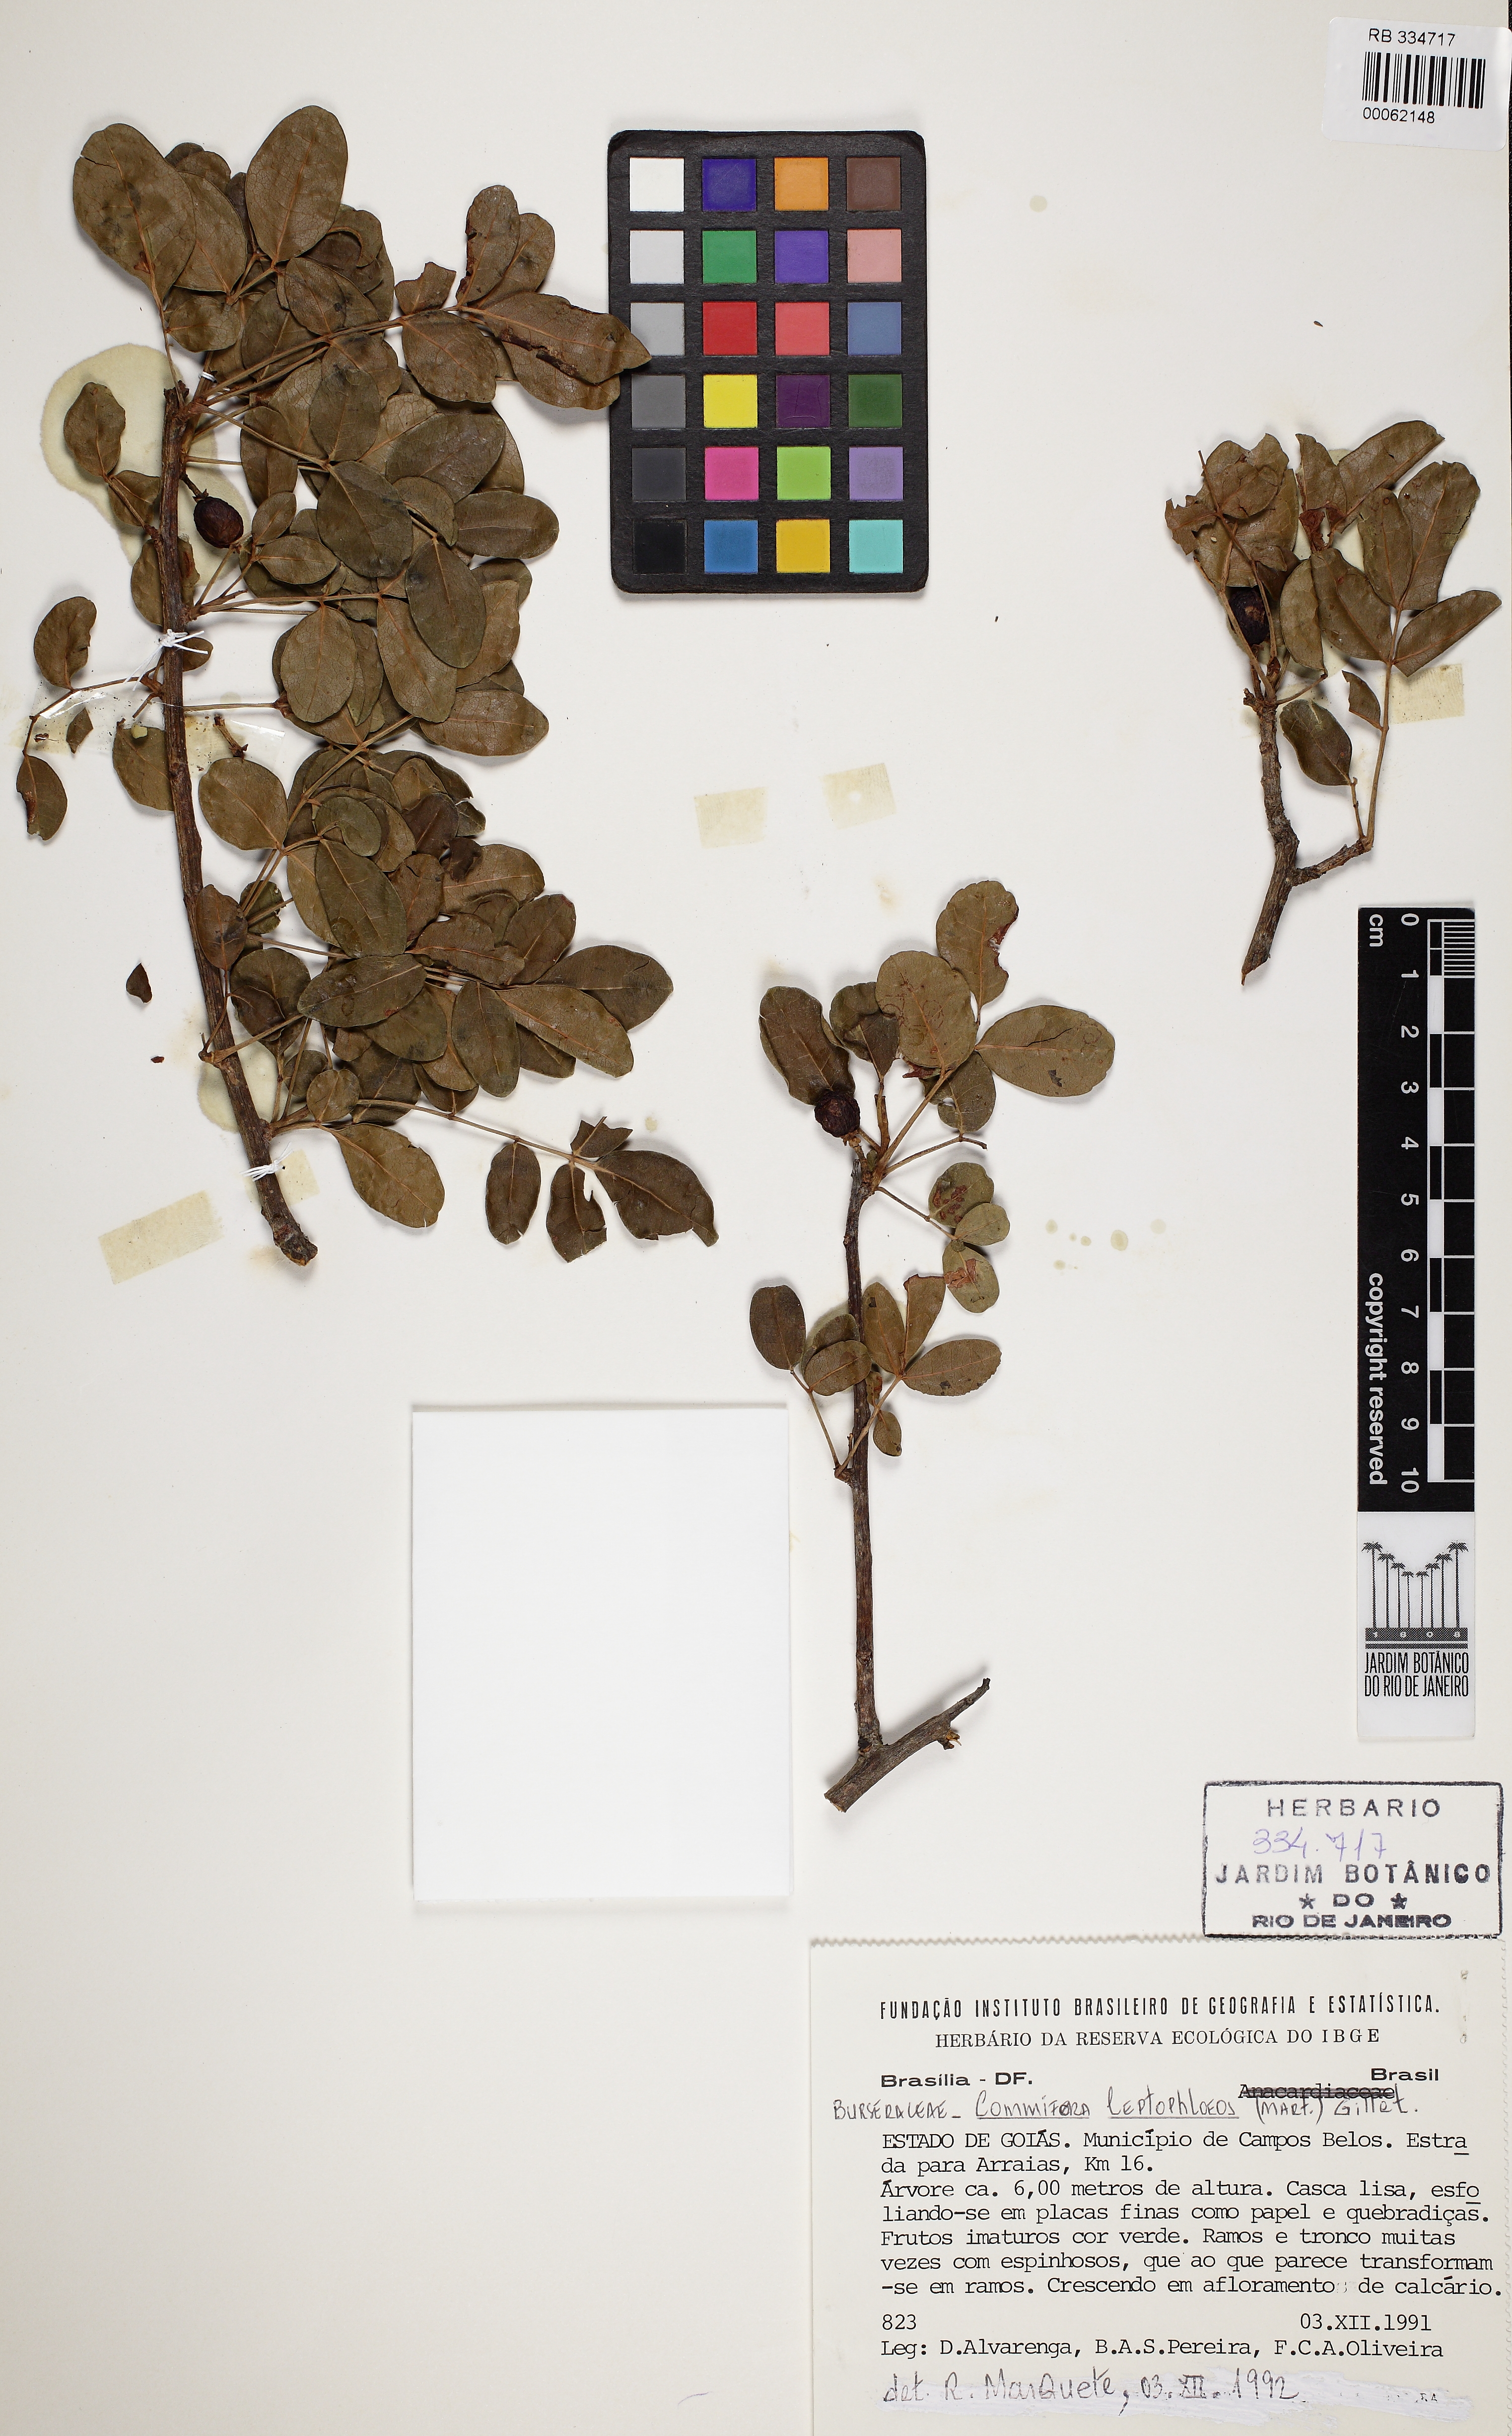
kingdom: Plantae
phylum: Tracheophyta
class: Magnoliopsida
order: Sapindales
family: Burseraceae
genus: Bursera
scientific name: Bursera leptophloeos
